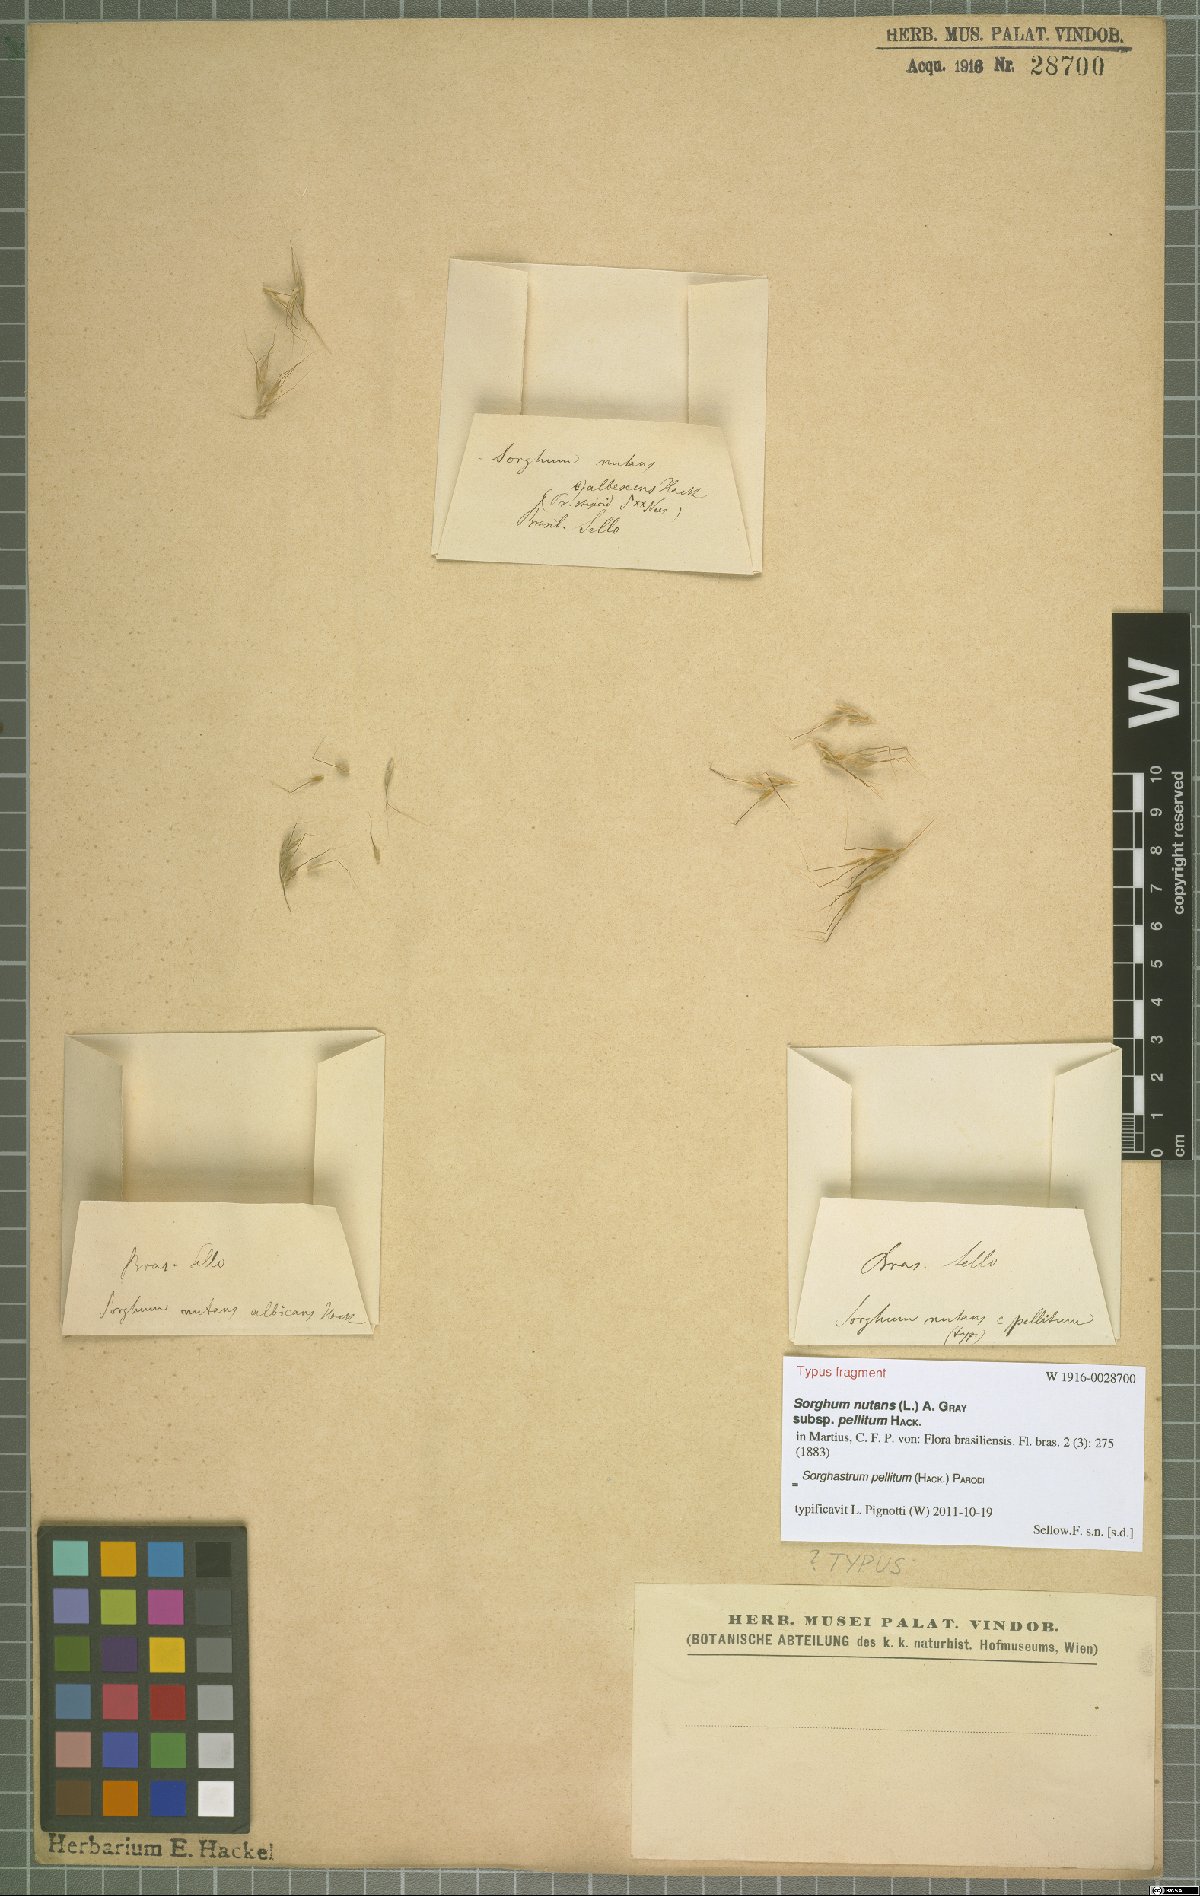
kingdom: Plantae
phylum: Tracheophyta
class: Liliopsida
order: Poales
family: Poaceae
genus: Sorghastrum
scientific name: Sorghastrum pellitum
